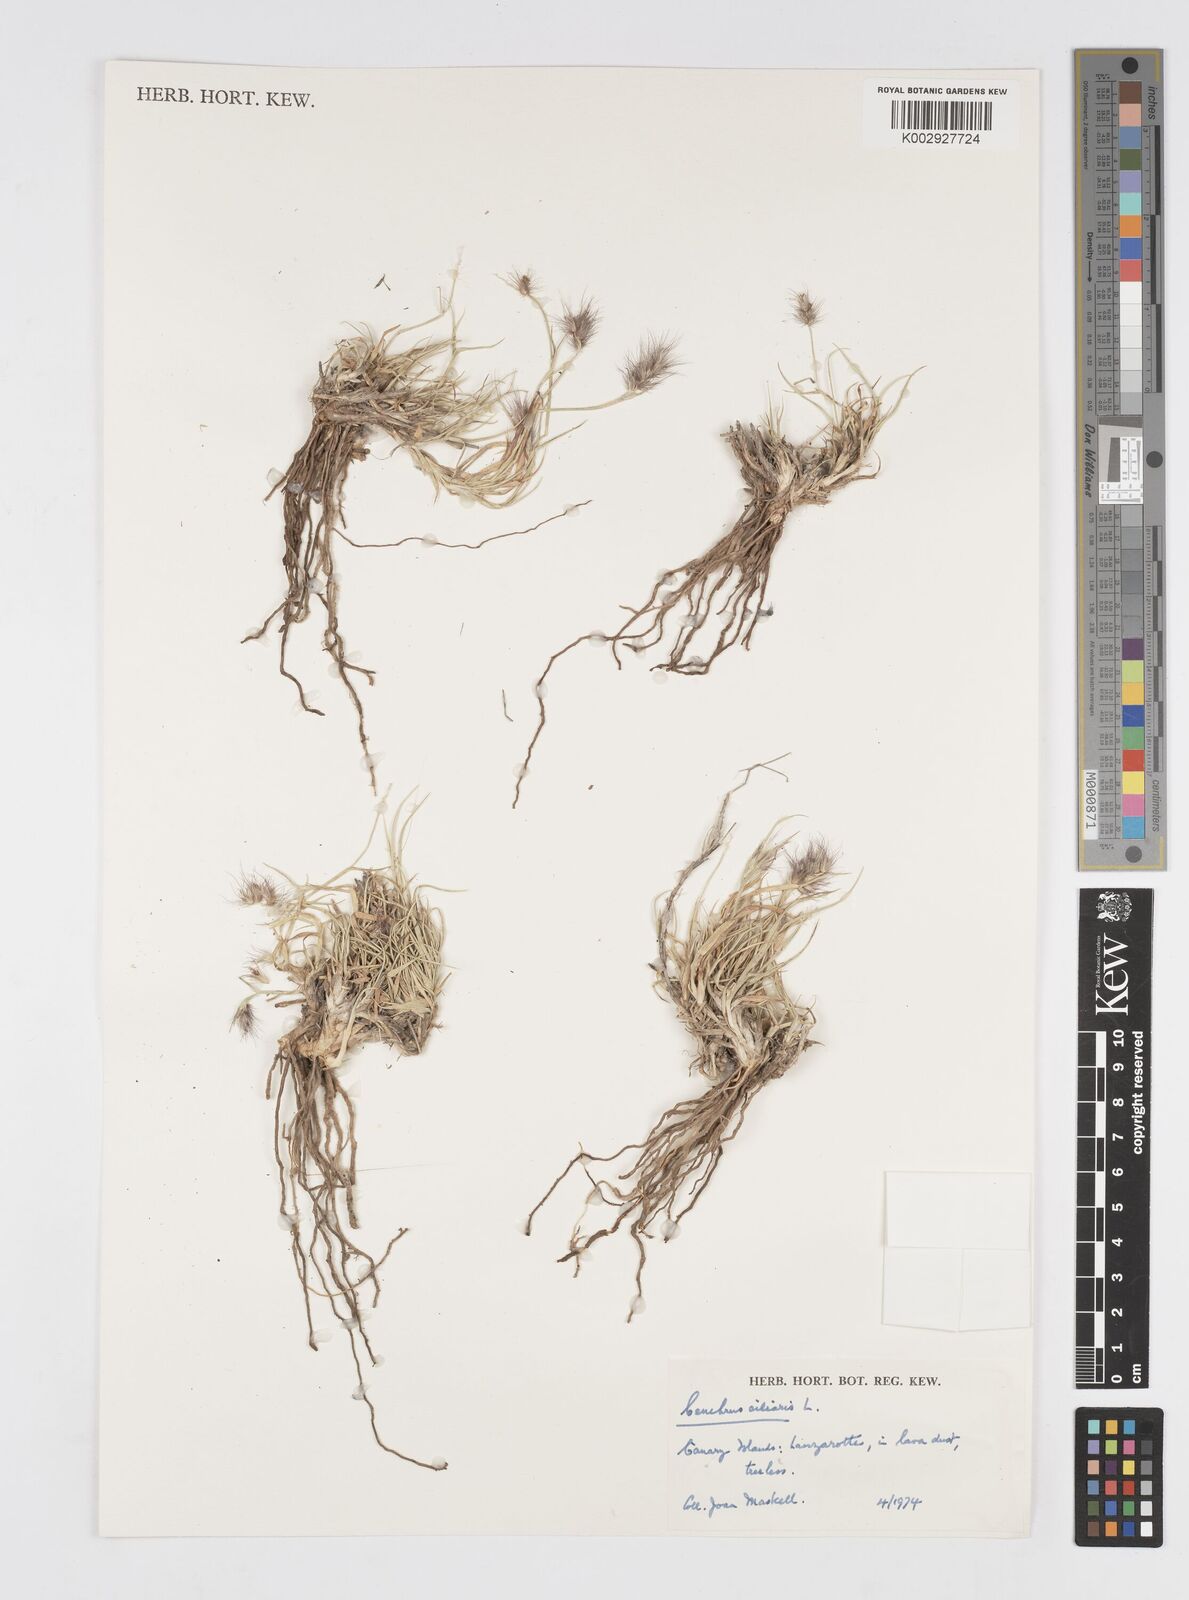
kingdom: Plantae
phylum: Tracheophyta
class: Liliopsida
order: Poales
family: Poaceae
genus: Cenchrus
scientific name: Cenchrus ciliaris
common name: Buffelgrass
